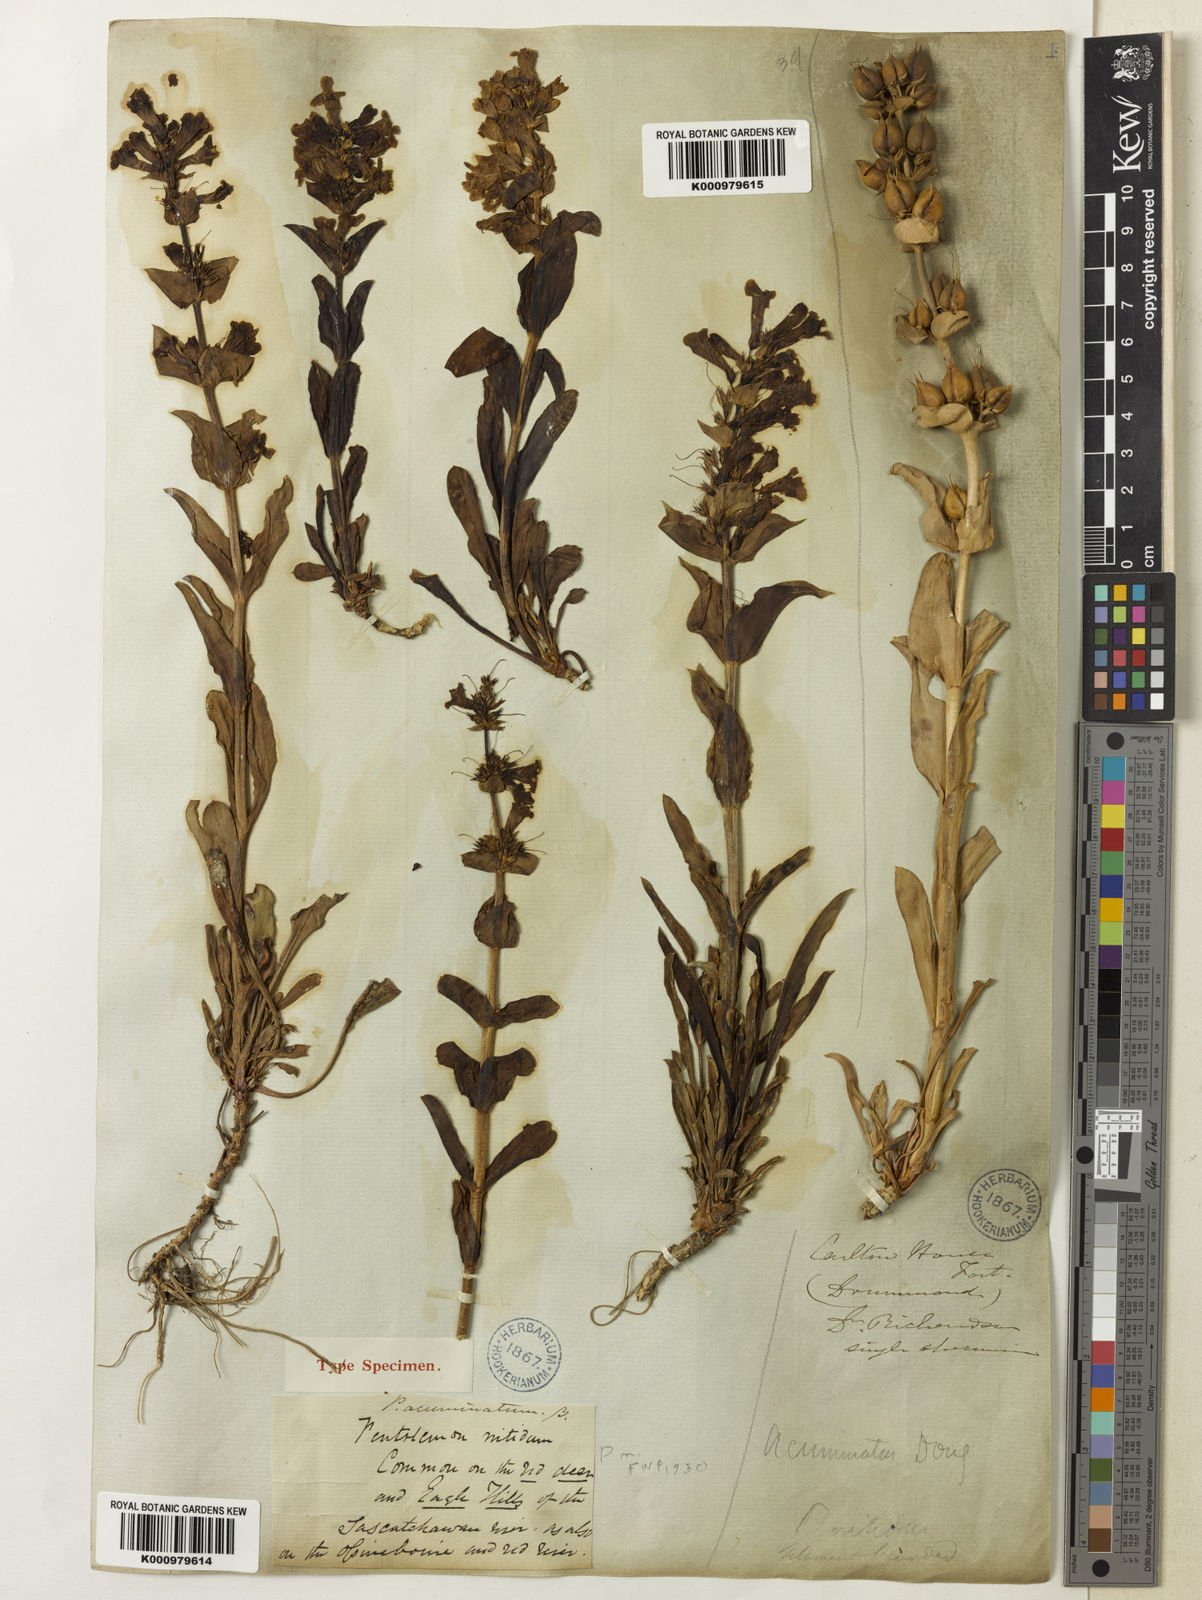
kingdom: Plantae
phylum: Tracheophyta
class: Magnoliopsida
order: Lamiales
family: Plantaginaceae
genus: Penstemon
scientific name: Penstemon nitidus
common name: Shining penstemon
